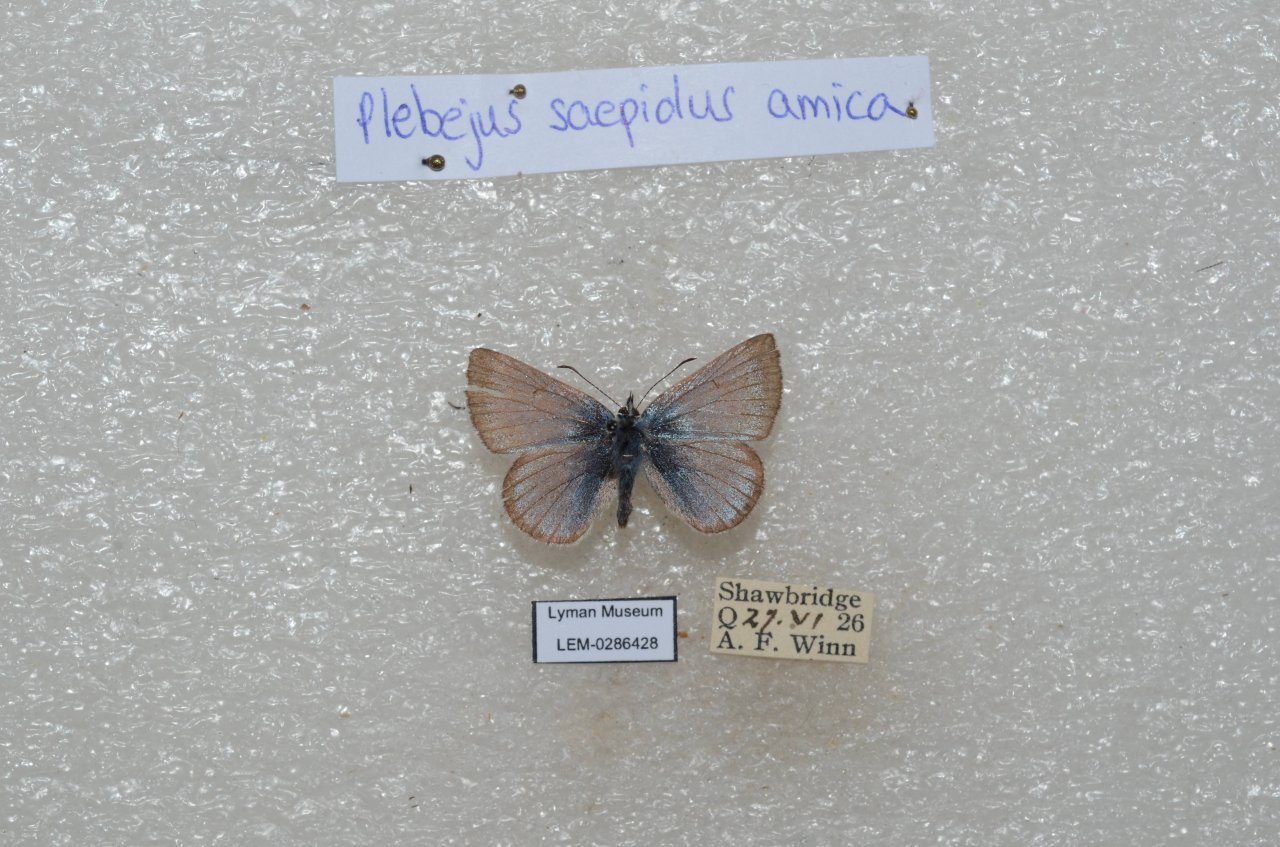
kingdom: Animalia
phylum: Arthropoda
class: Insecta
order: Lepidoptera
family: Lycaenidae
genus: Plebejus
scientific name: Plebejus saepiolus
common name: Greenish Blue
